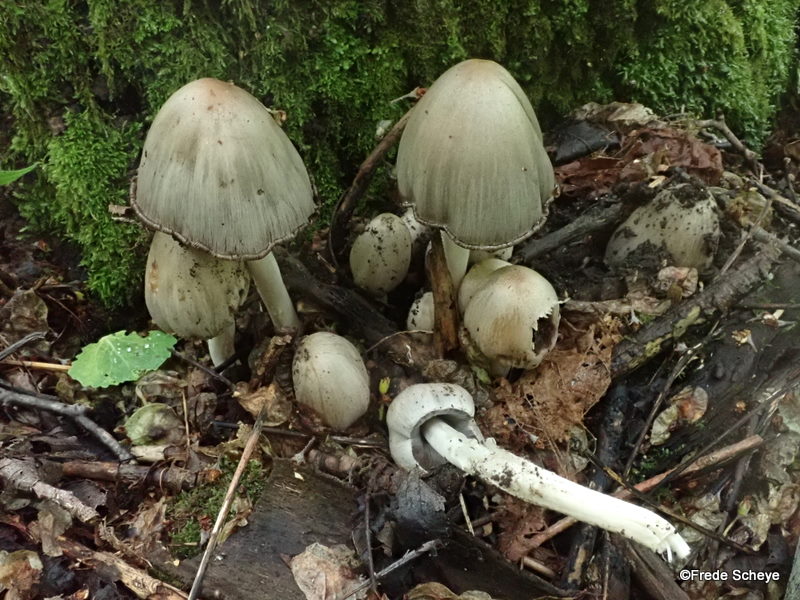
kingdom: Fungi
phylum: Basidiomycota
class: Agaricomycetes
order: Agaricales
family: Psathyrellaceae
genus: Coprinopsis
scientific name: Coprinopsis atramentaria
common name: almindelig blækhat
